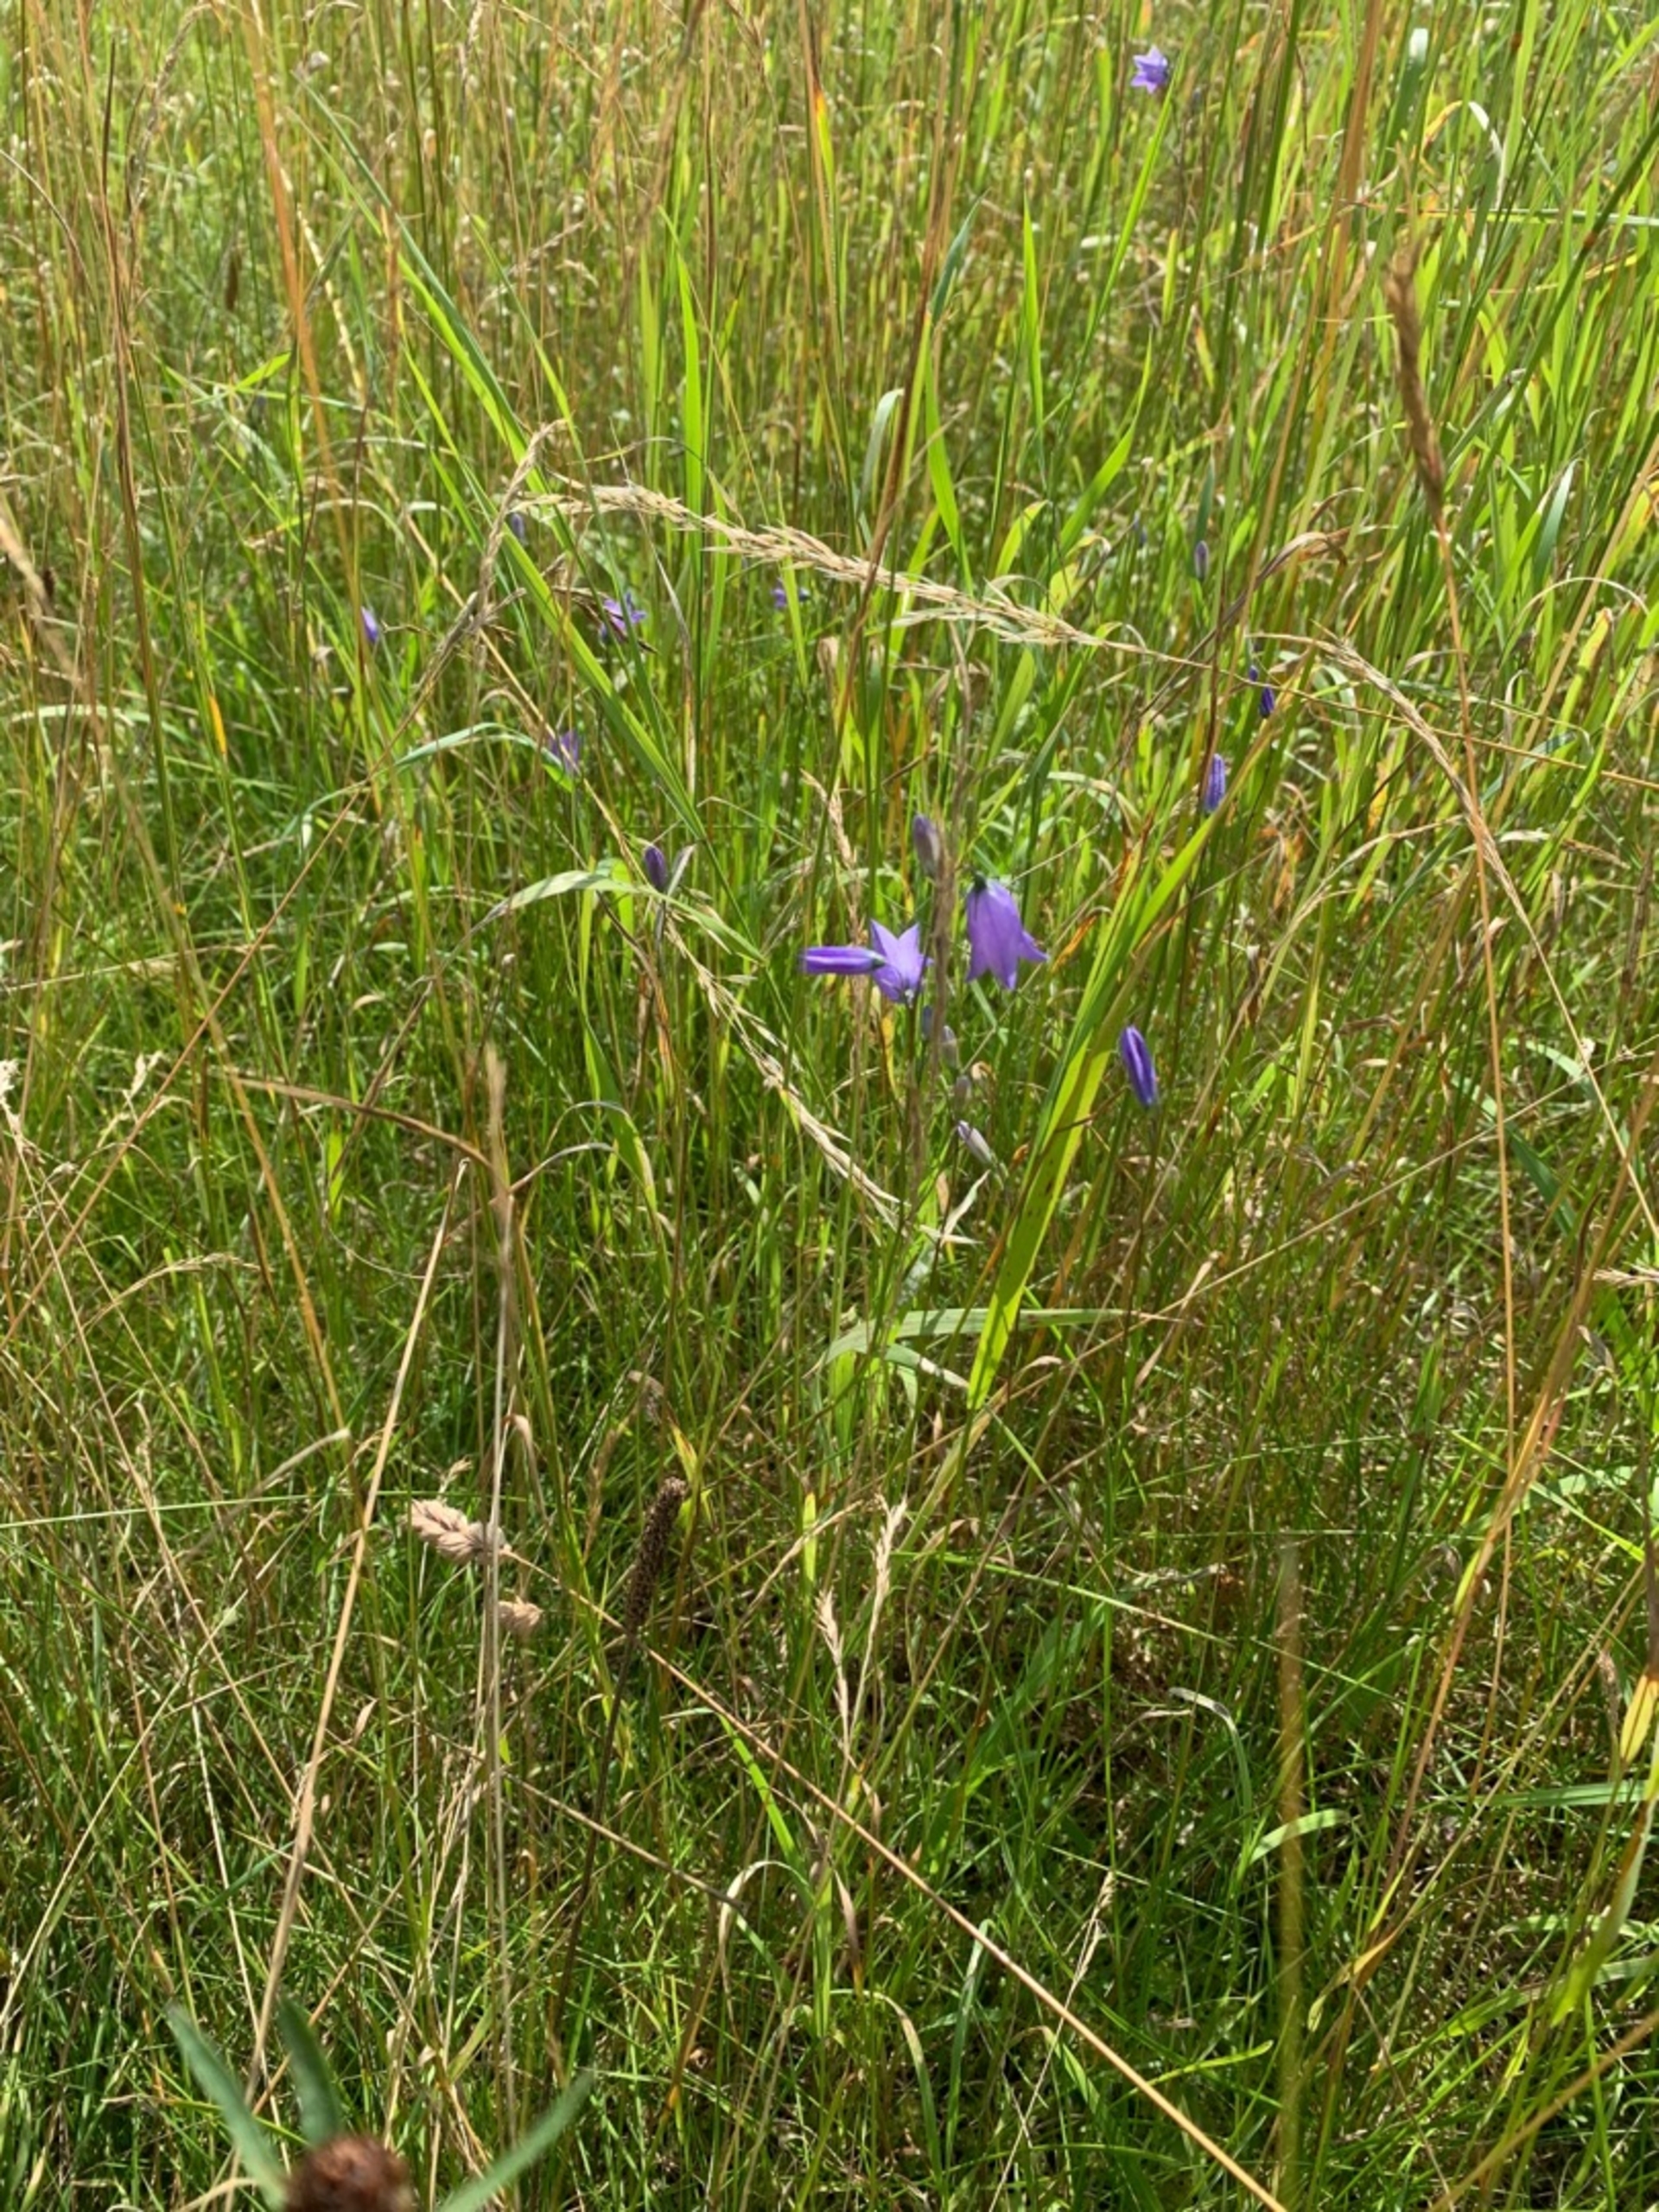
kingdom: Plantae
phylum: Tracheophyta
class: Magnoliopsida
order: Asterales
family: Campanulaceae
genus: Campanula
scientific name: Campanula rotundifolia
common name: Liden klokke
